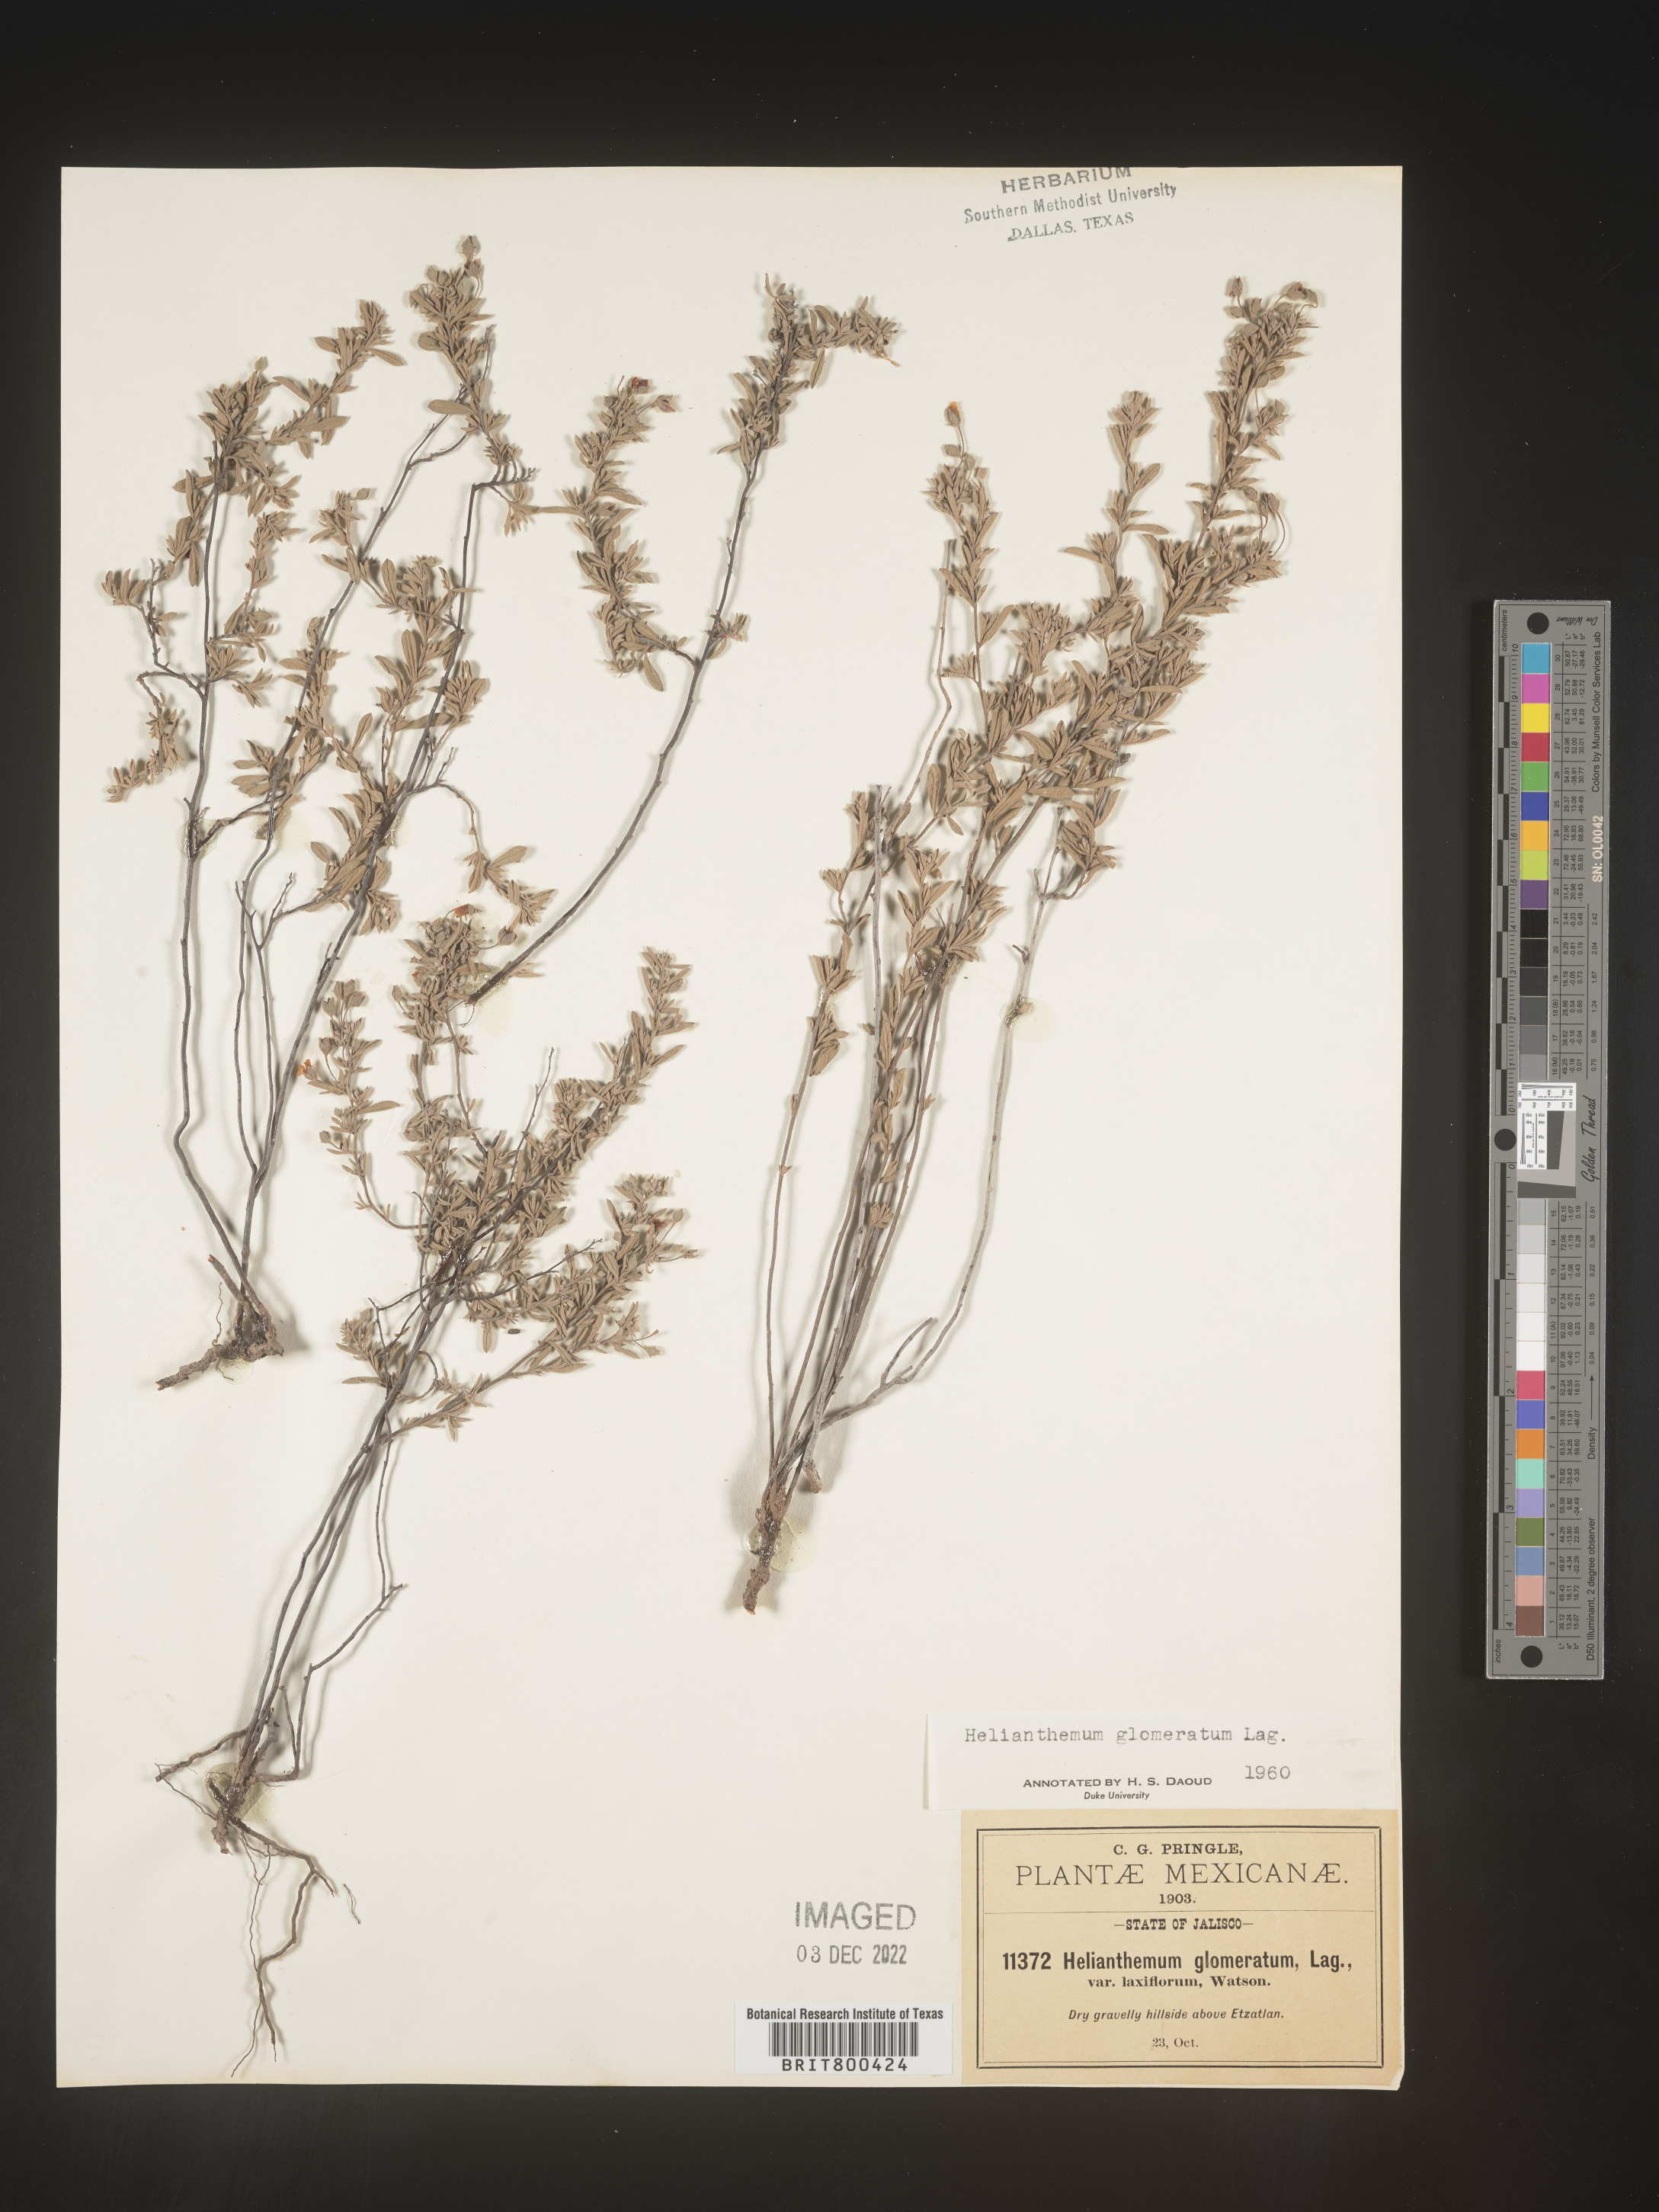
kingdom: Plantae
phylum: Tracheophyta
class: Magnoliopsida
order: Malvales
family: Cistaceae
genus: Helianthemum
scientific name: Helianthemum
